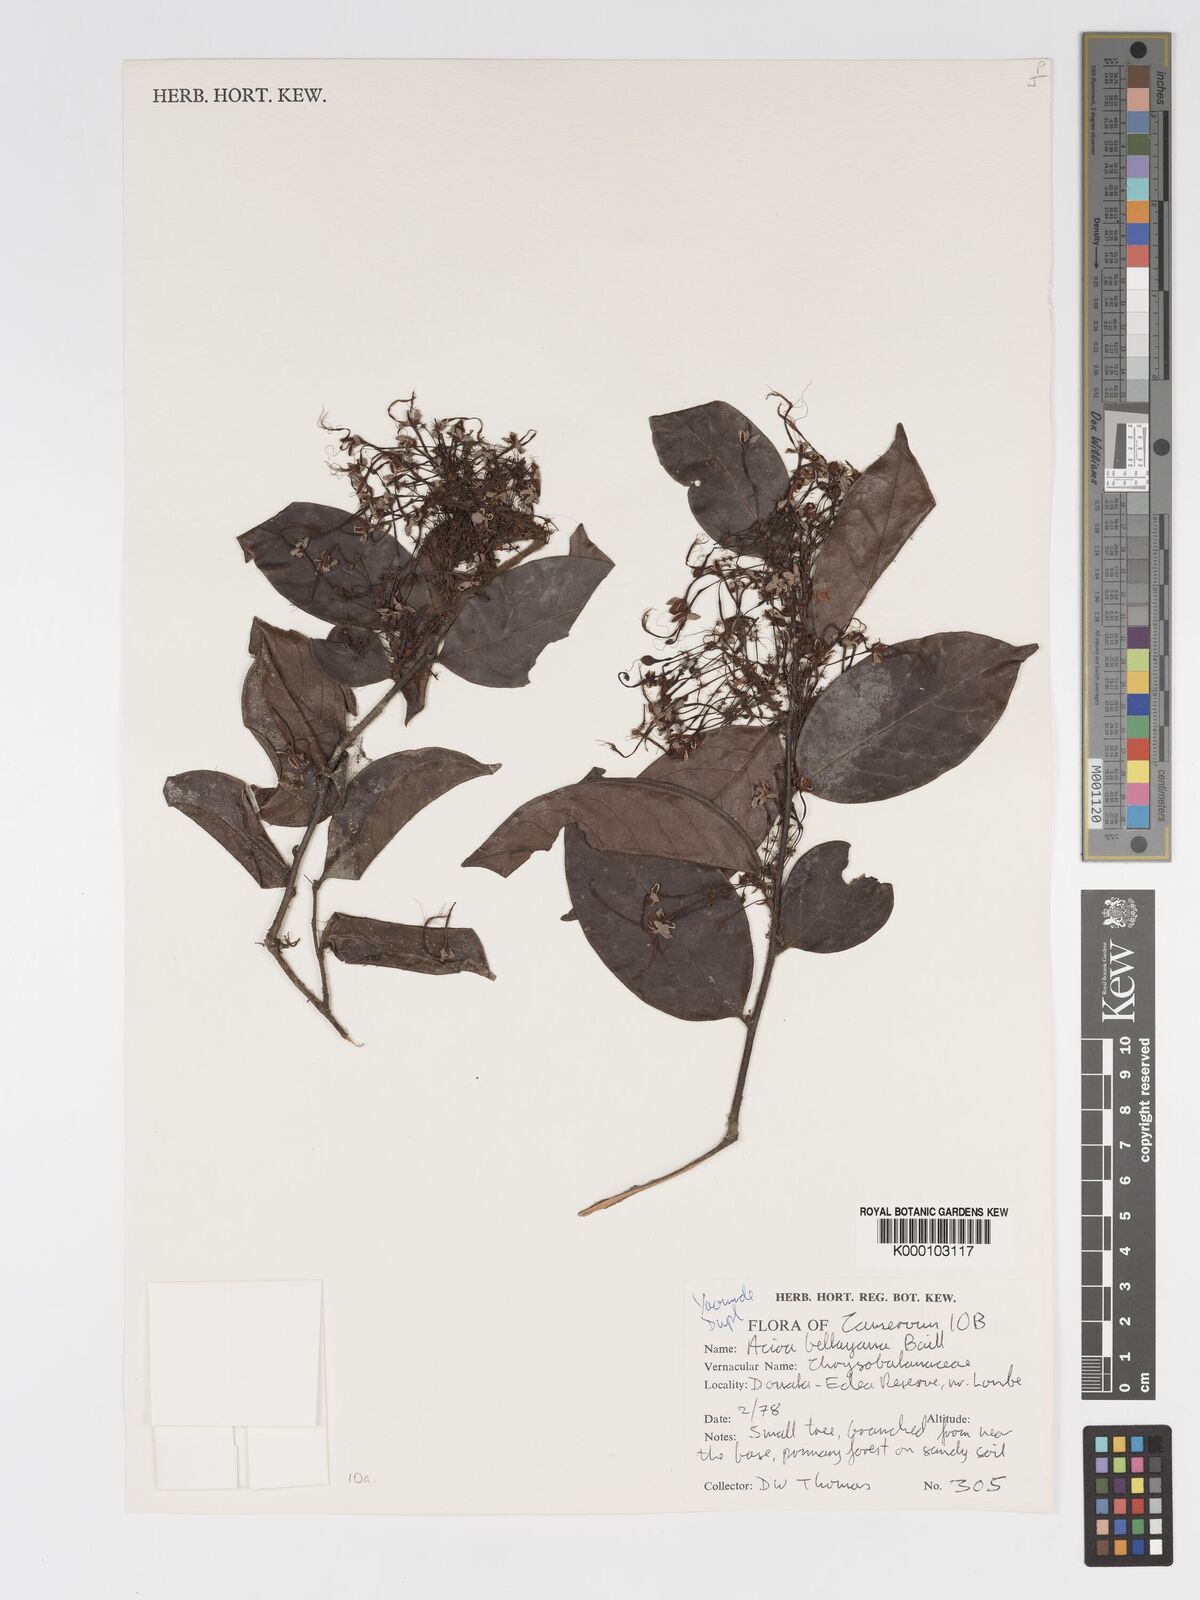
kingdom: Plantae
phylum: Tracheophyta
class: Magnoliopsida
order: Malpighiales
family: Chrysobalanaceae
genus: Dactyladenia
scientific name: Dactyladenia bellayana
